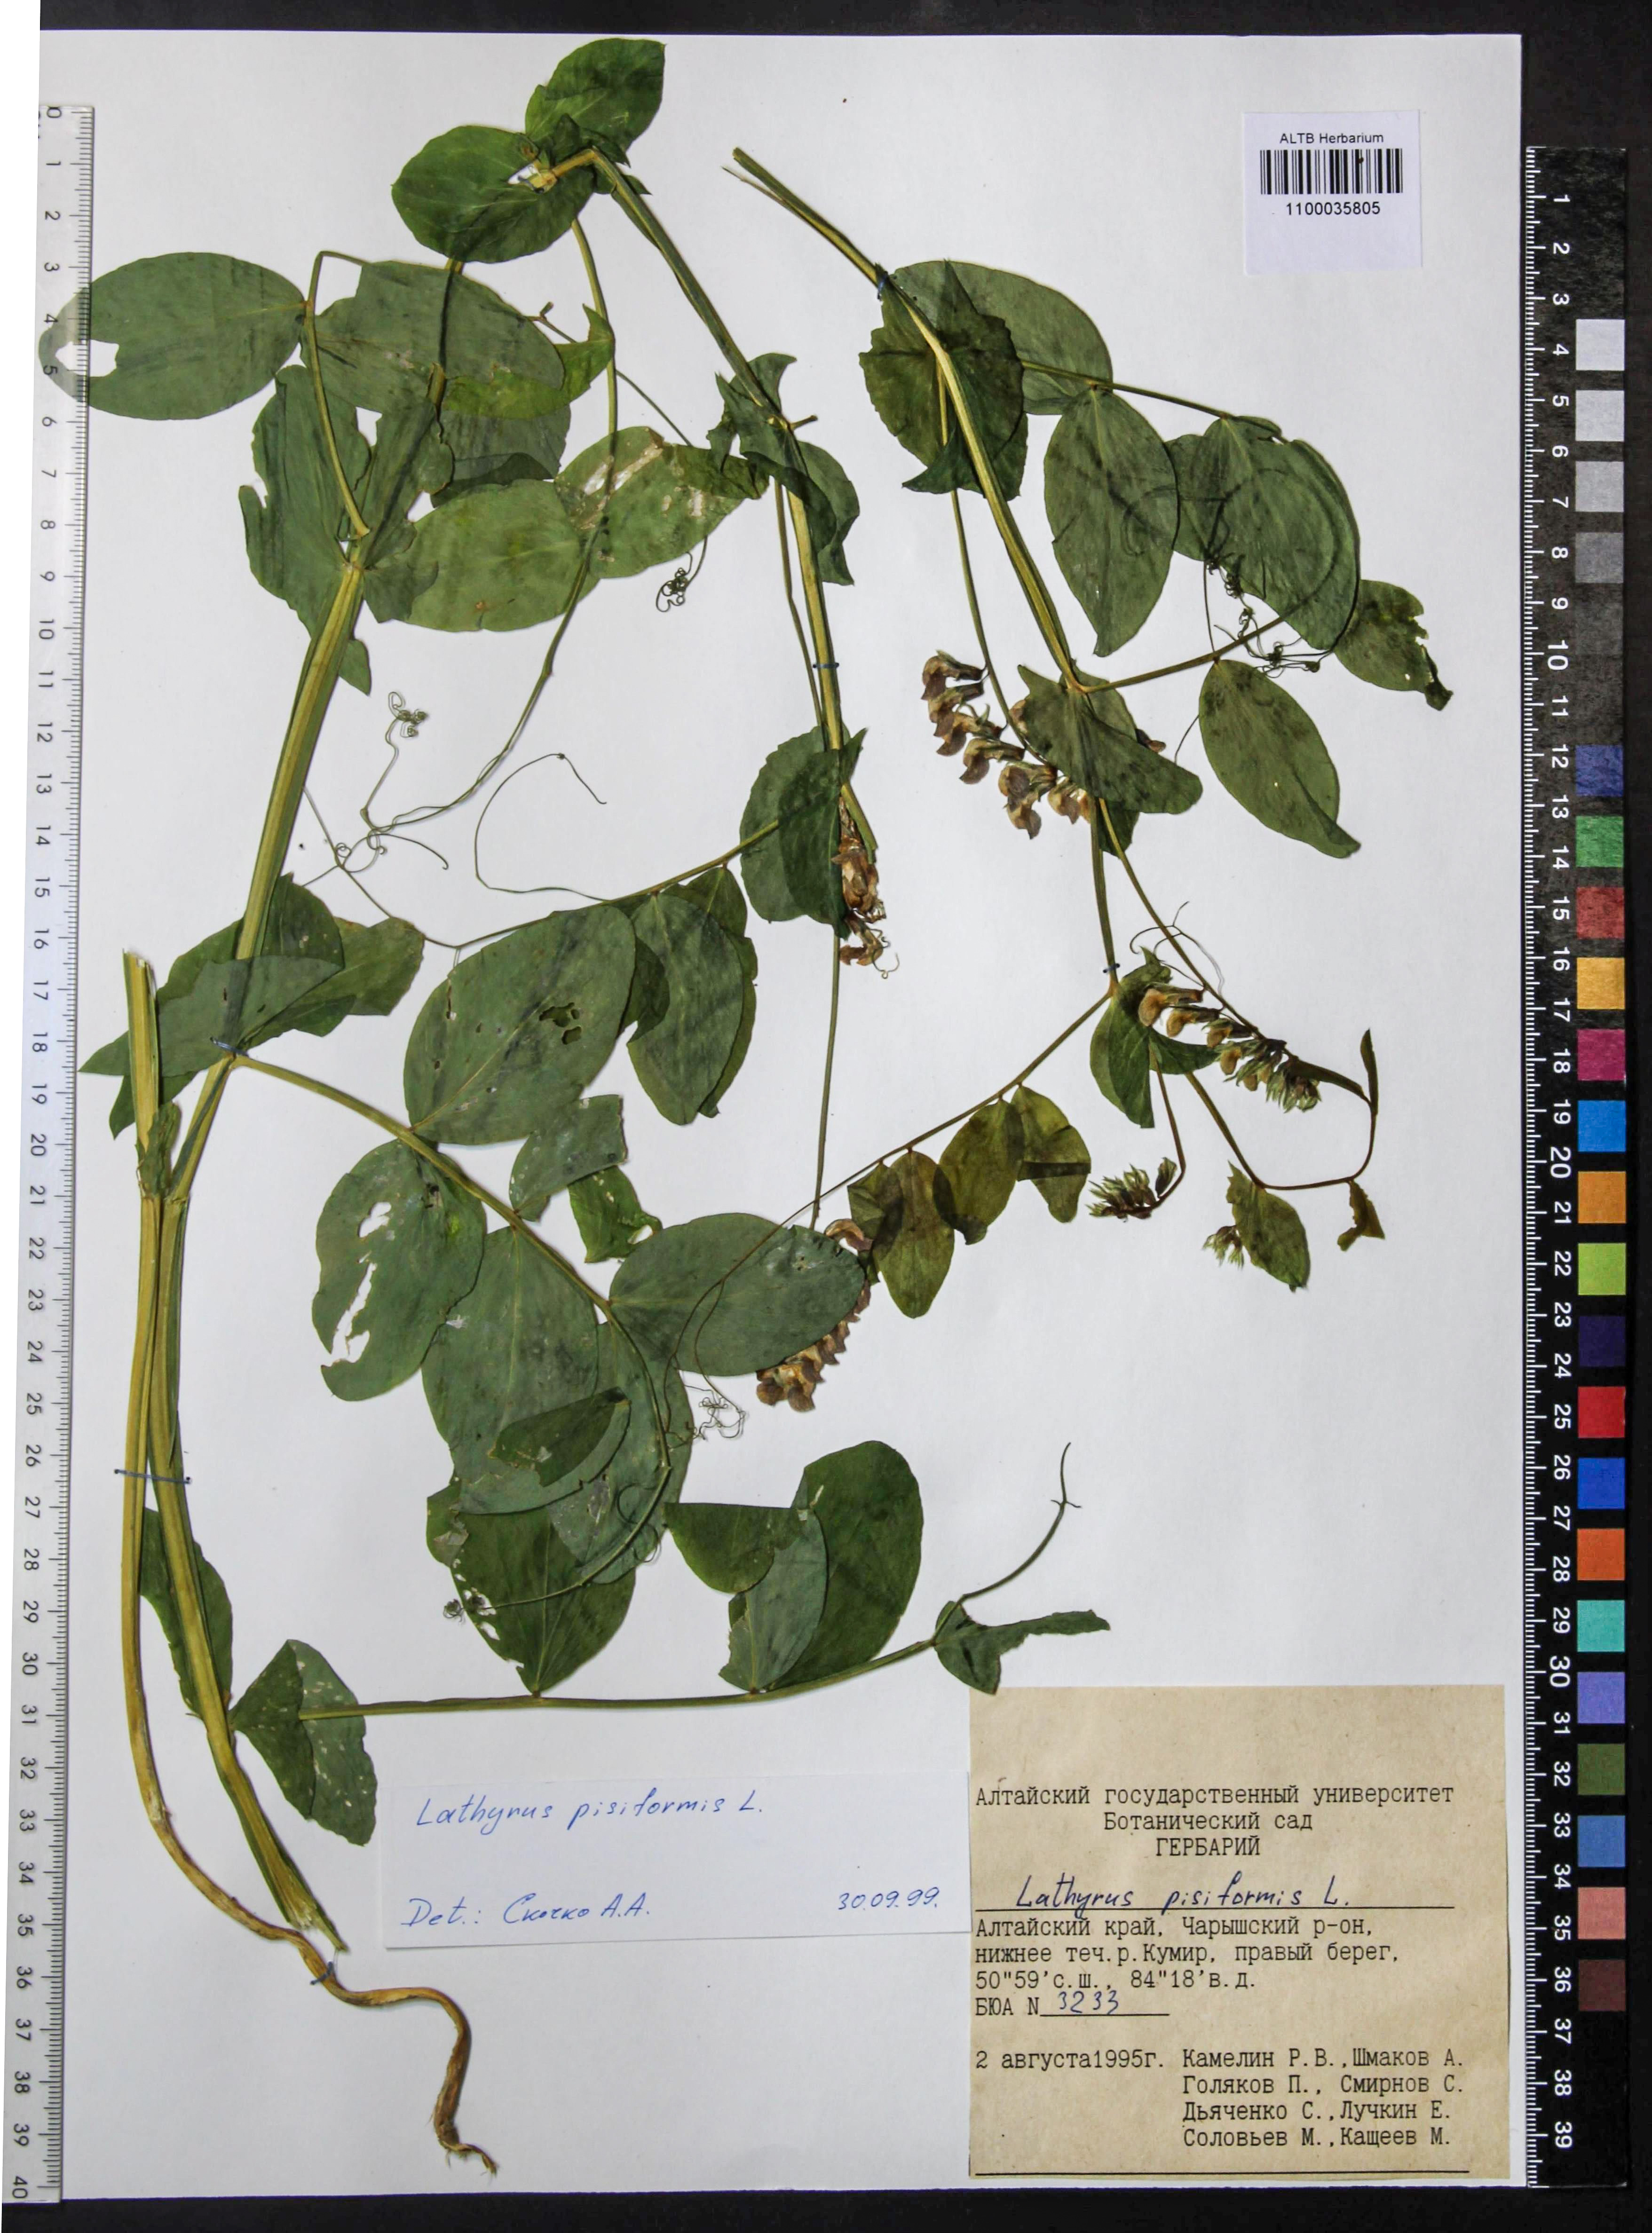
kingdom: Plantae
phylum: Tracheophyta
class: Magnoliopsida
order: Fabales
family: Fabaceae
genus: Lathyrus
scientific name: Lathyrus pisiformis
